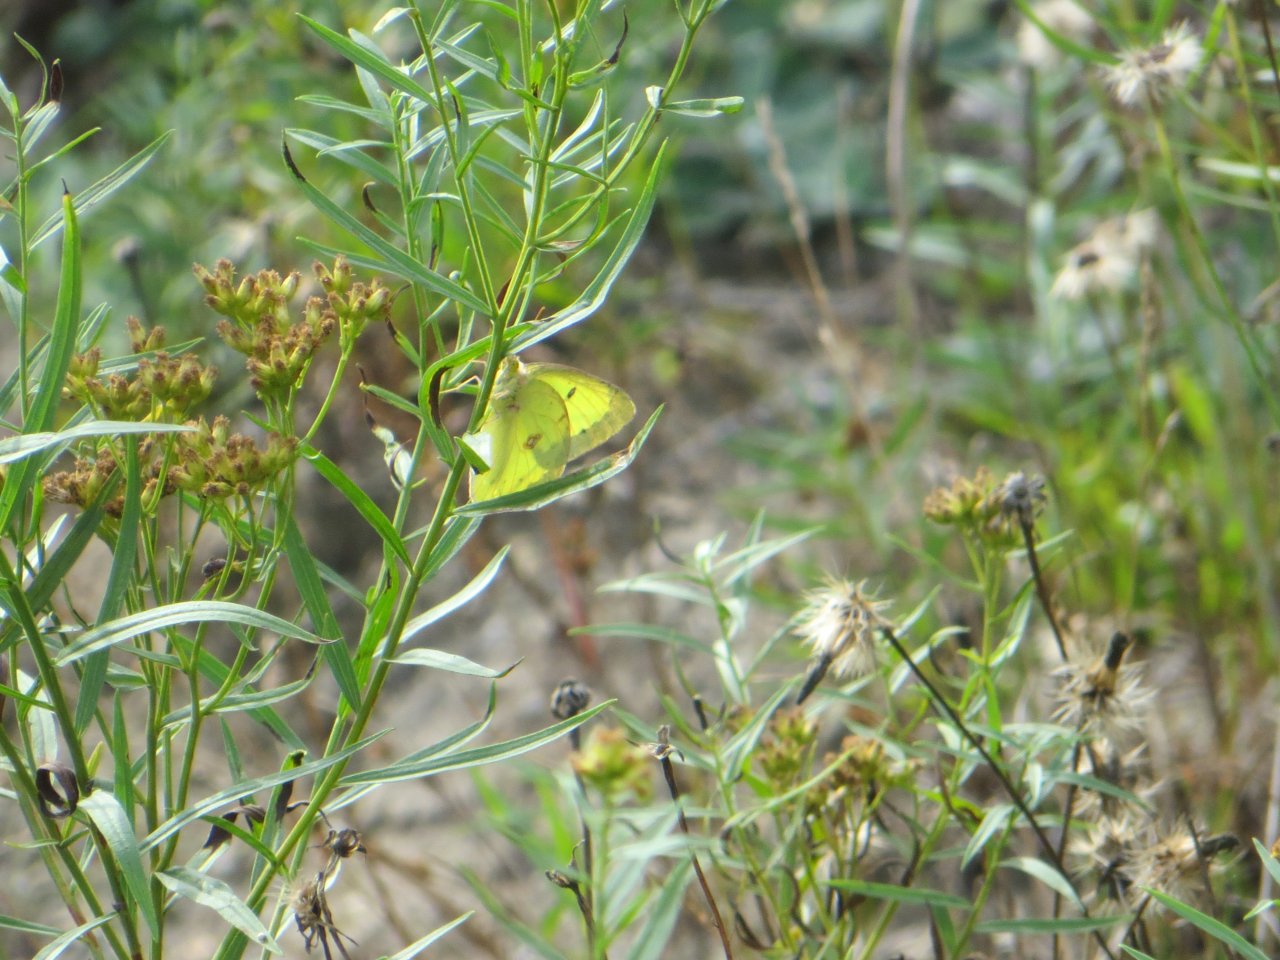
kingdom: Animalia
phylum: Arthropoda
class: Insecta
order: Lepidoptera
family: Pieridae
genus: Colias
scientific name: Colias philodice
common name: Clouded Sulphur
